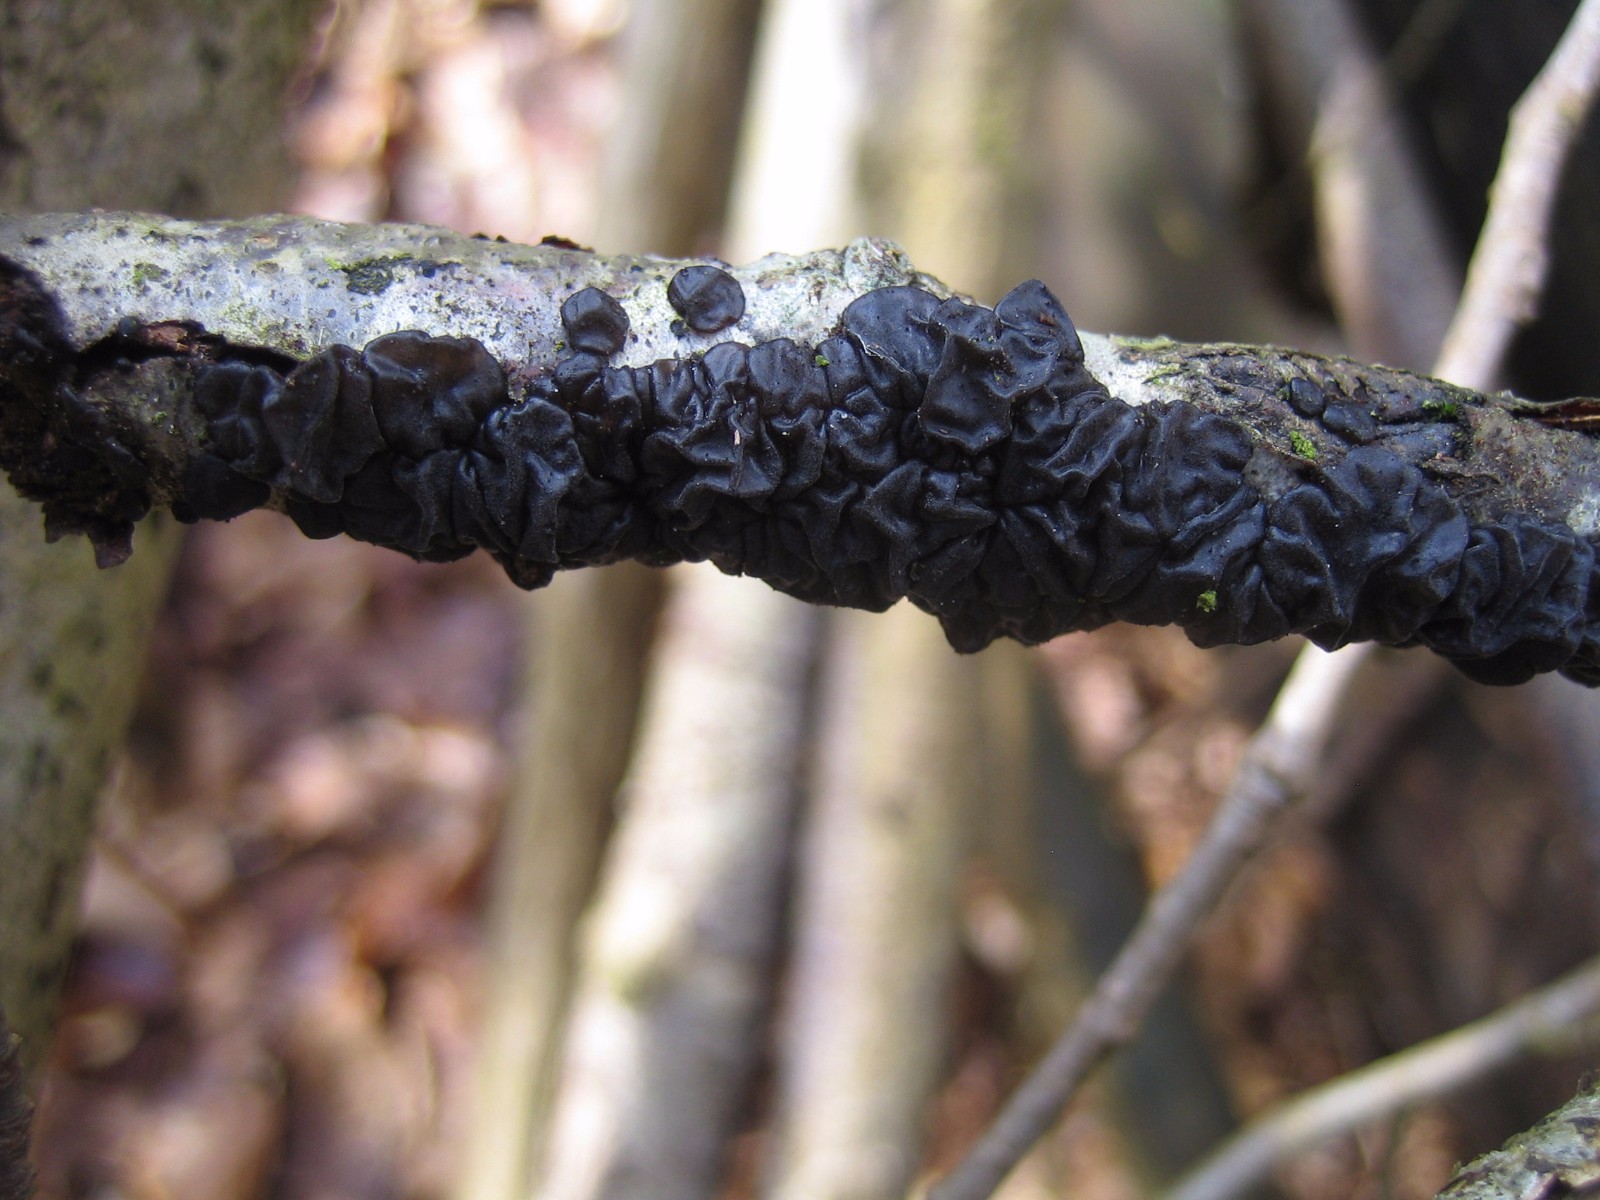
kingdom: Fungi
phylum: Basidiomycota
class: Agaricomycetes
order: Auriculariales
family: Auriculariaceae
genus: Exidia
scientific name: Exidia nigricans
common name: almindelig bævretop
